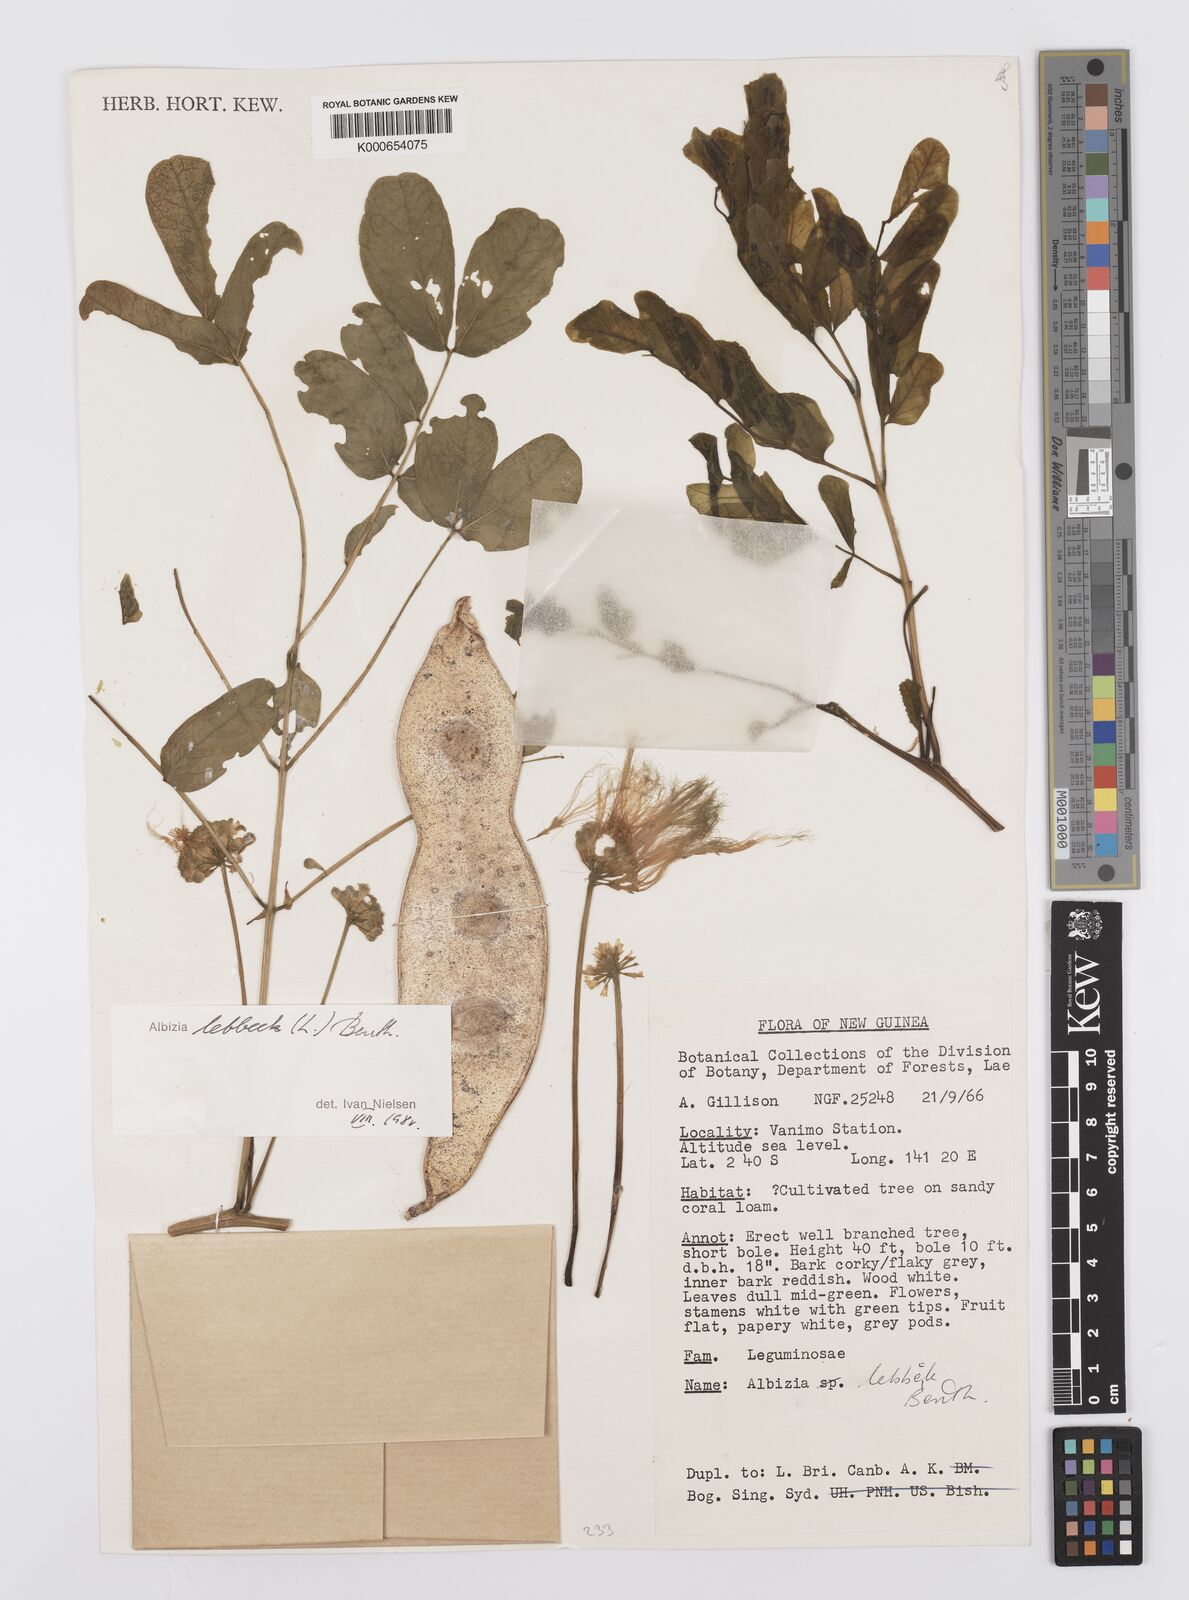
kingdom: Plantae
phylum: Tracheophyta
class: Magnoliopsida
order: Fabales
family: Fabaceae
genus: Albizia
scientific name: Albizia lebbeck
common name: Woman's tongue
